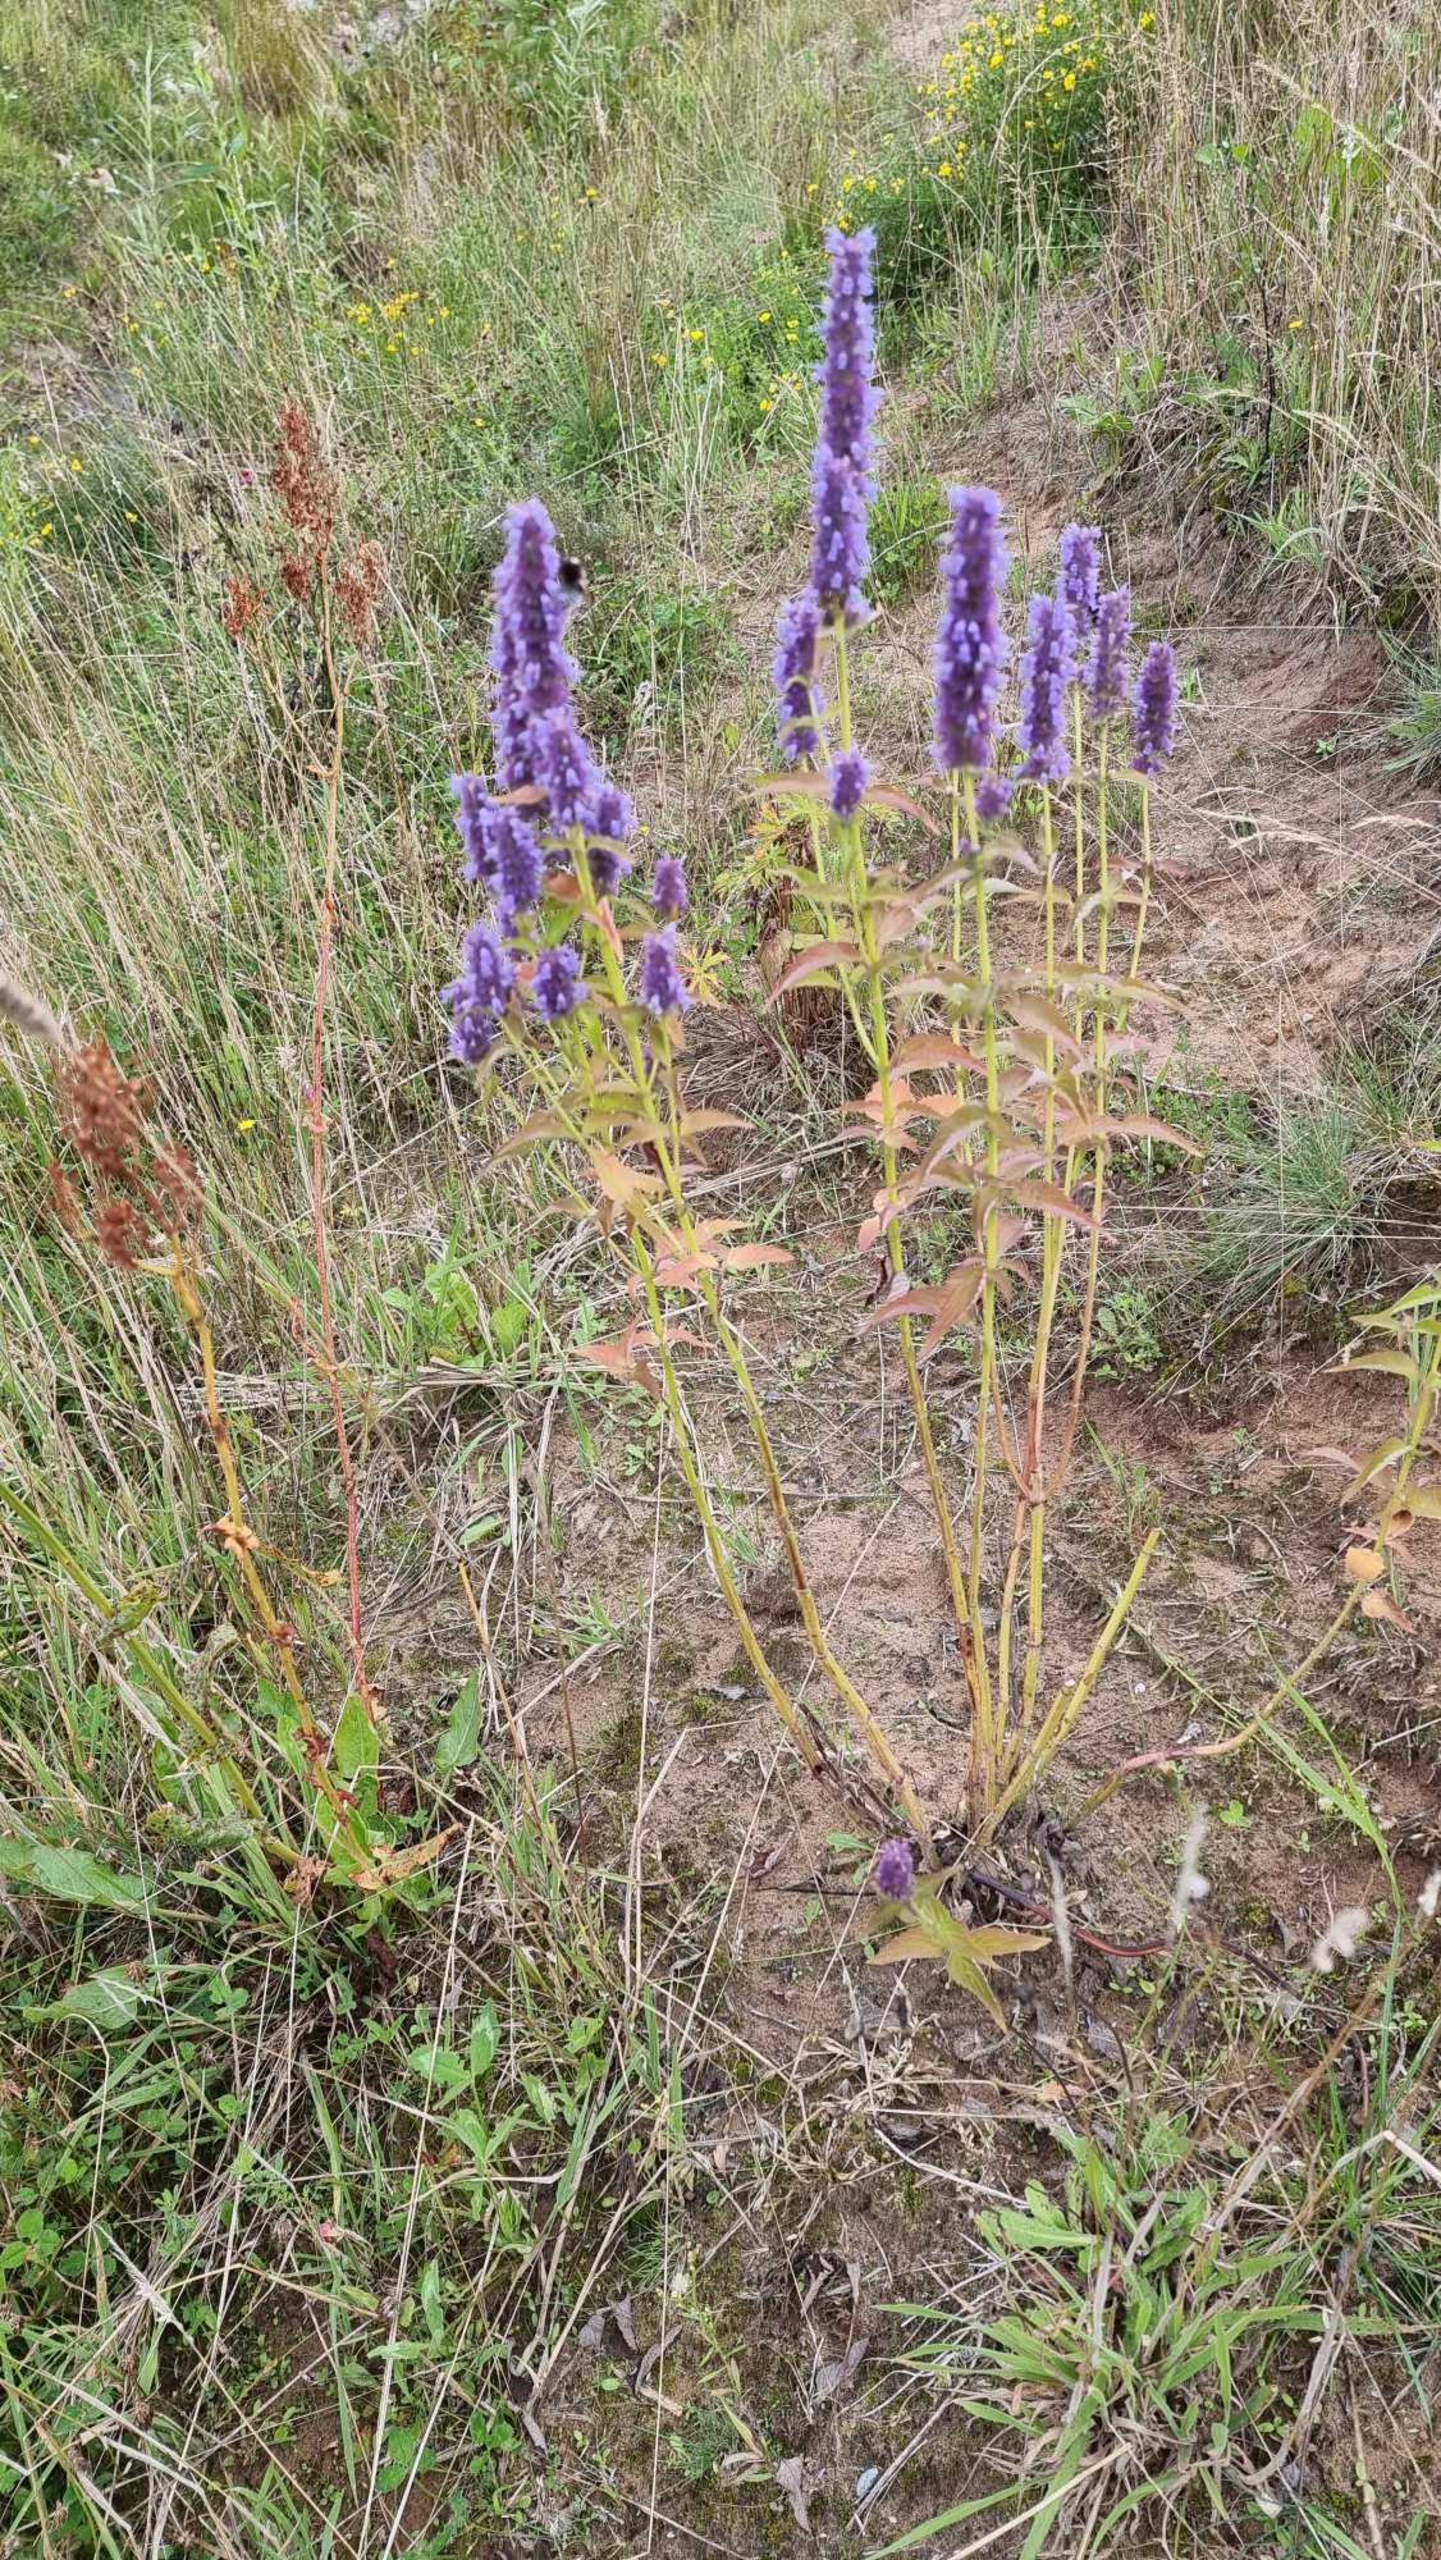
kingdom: Plantae
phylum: Tracheophyta
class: Magnoliopsida
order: Lamiales
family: Lamiaceae
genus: Agastache
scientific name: Agastache rugosa
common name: Koreansk anisisop
